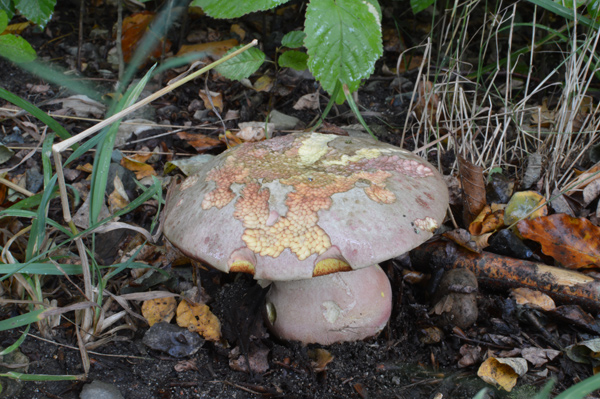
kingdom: Fungi
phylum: Basidiomycota
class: Agaricomycetes
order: Boletales
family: Boletaceae
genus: Rubroboletus
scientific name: Rubroboletus legaliae
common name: djævle-rørhat
